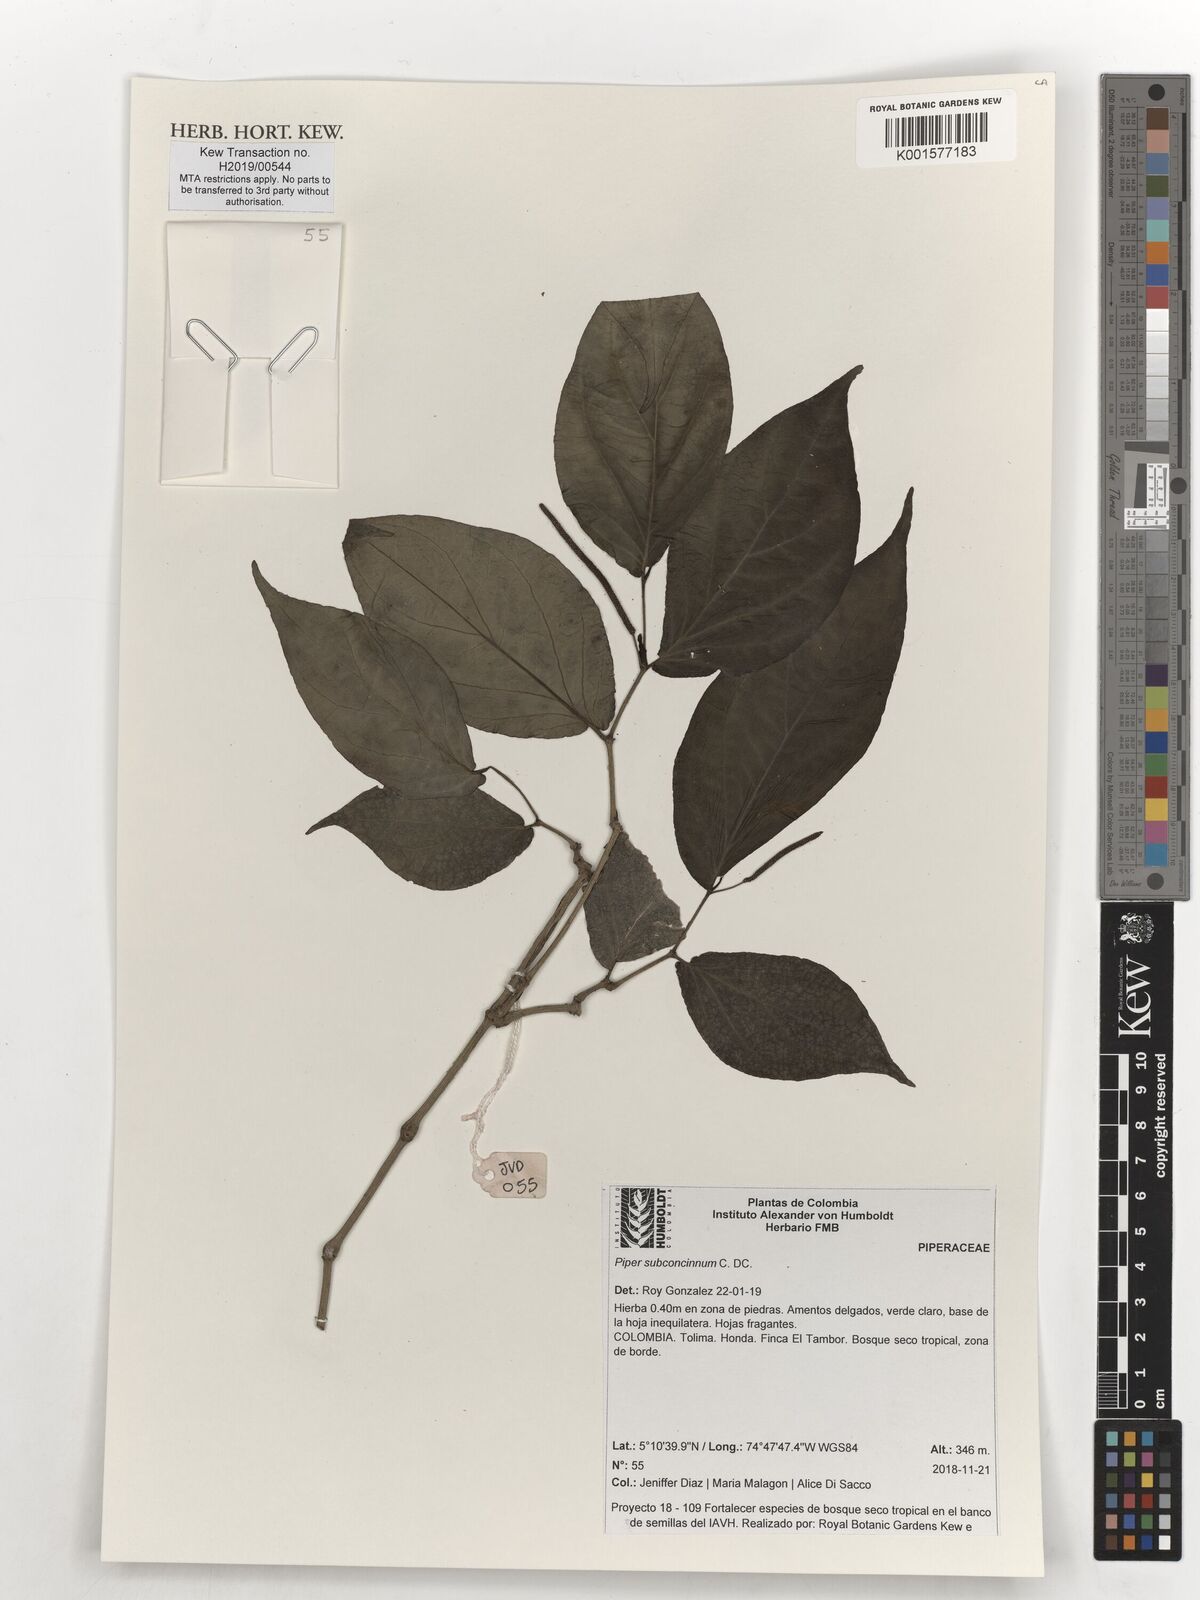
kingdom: Plantae
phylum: Tracheophyta
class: Magnoliopsida
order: Piperales
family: Piperaceae
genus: Piper
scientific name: Piper subconcinnum
